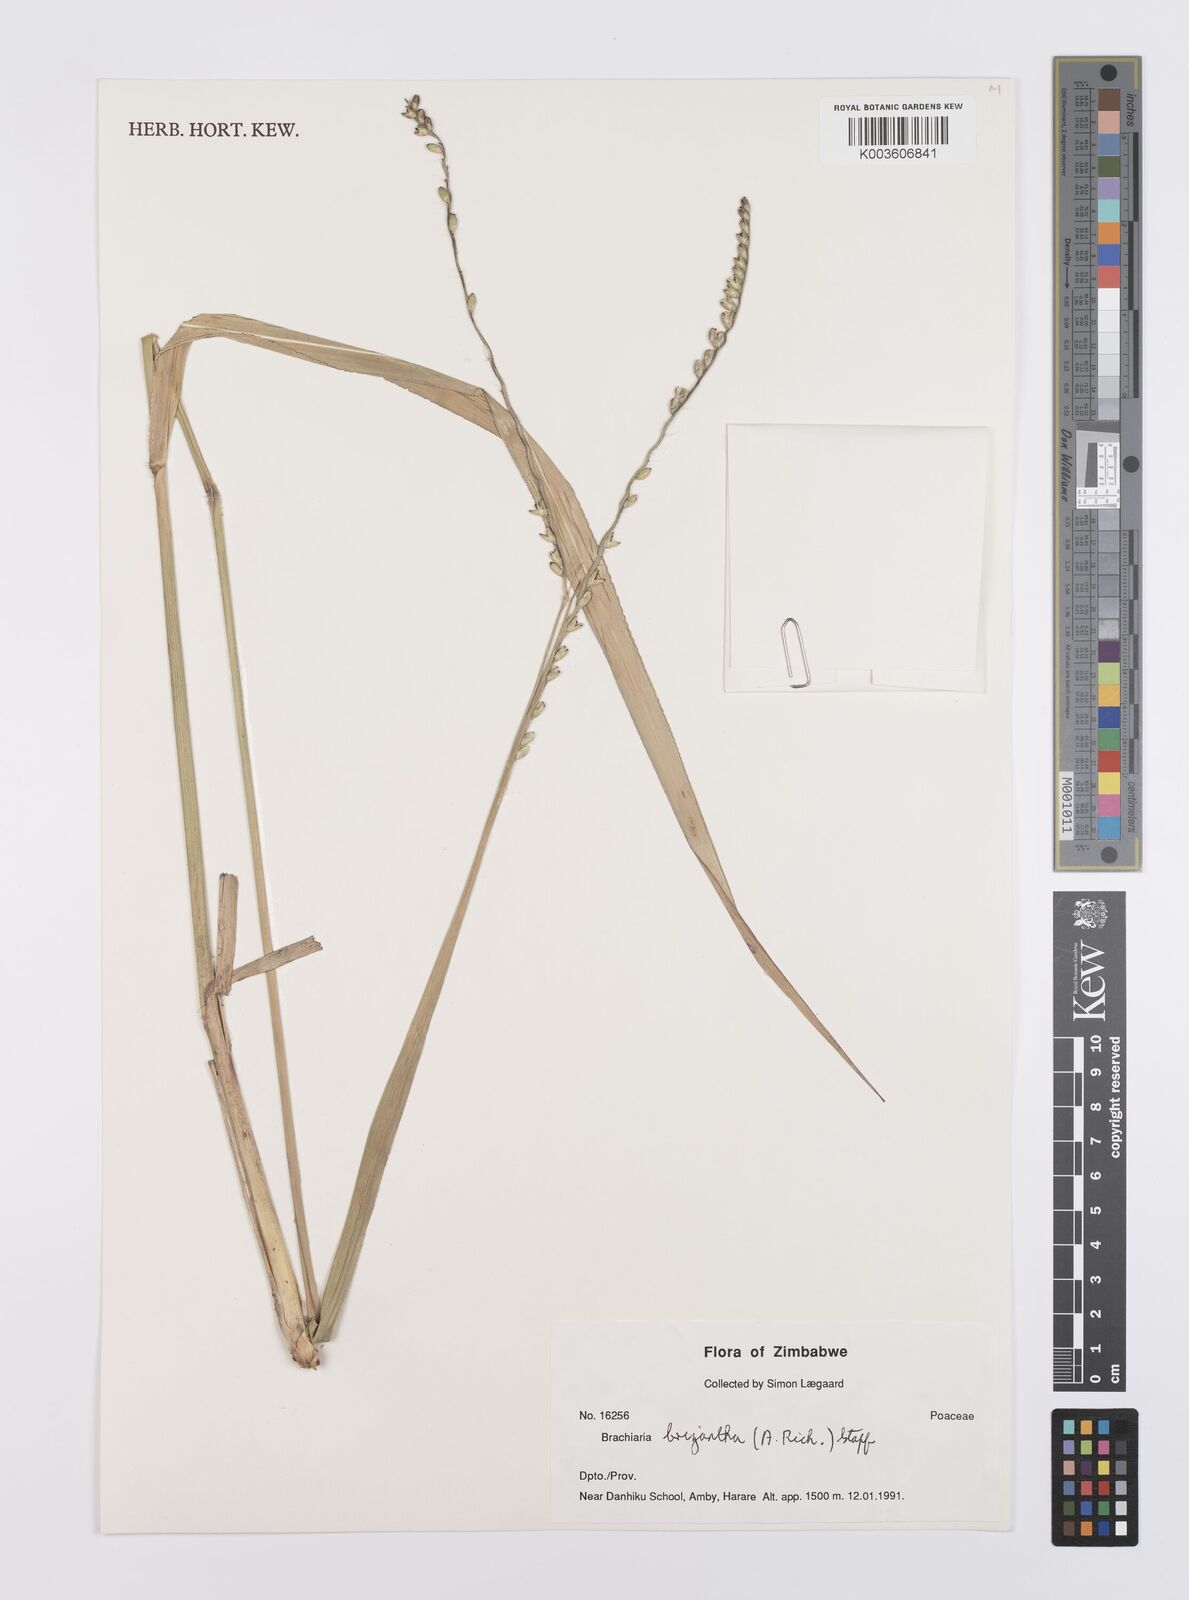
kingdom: Plantae
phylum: Tracheophyta
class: Liliopsida
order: Poales
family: Poaceae
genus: Urochloa
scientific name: Urochloa brizantha
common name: Palisade signalgrass
